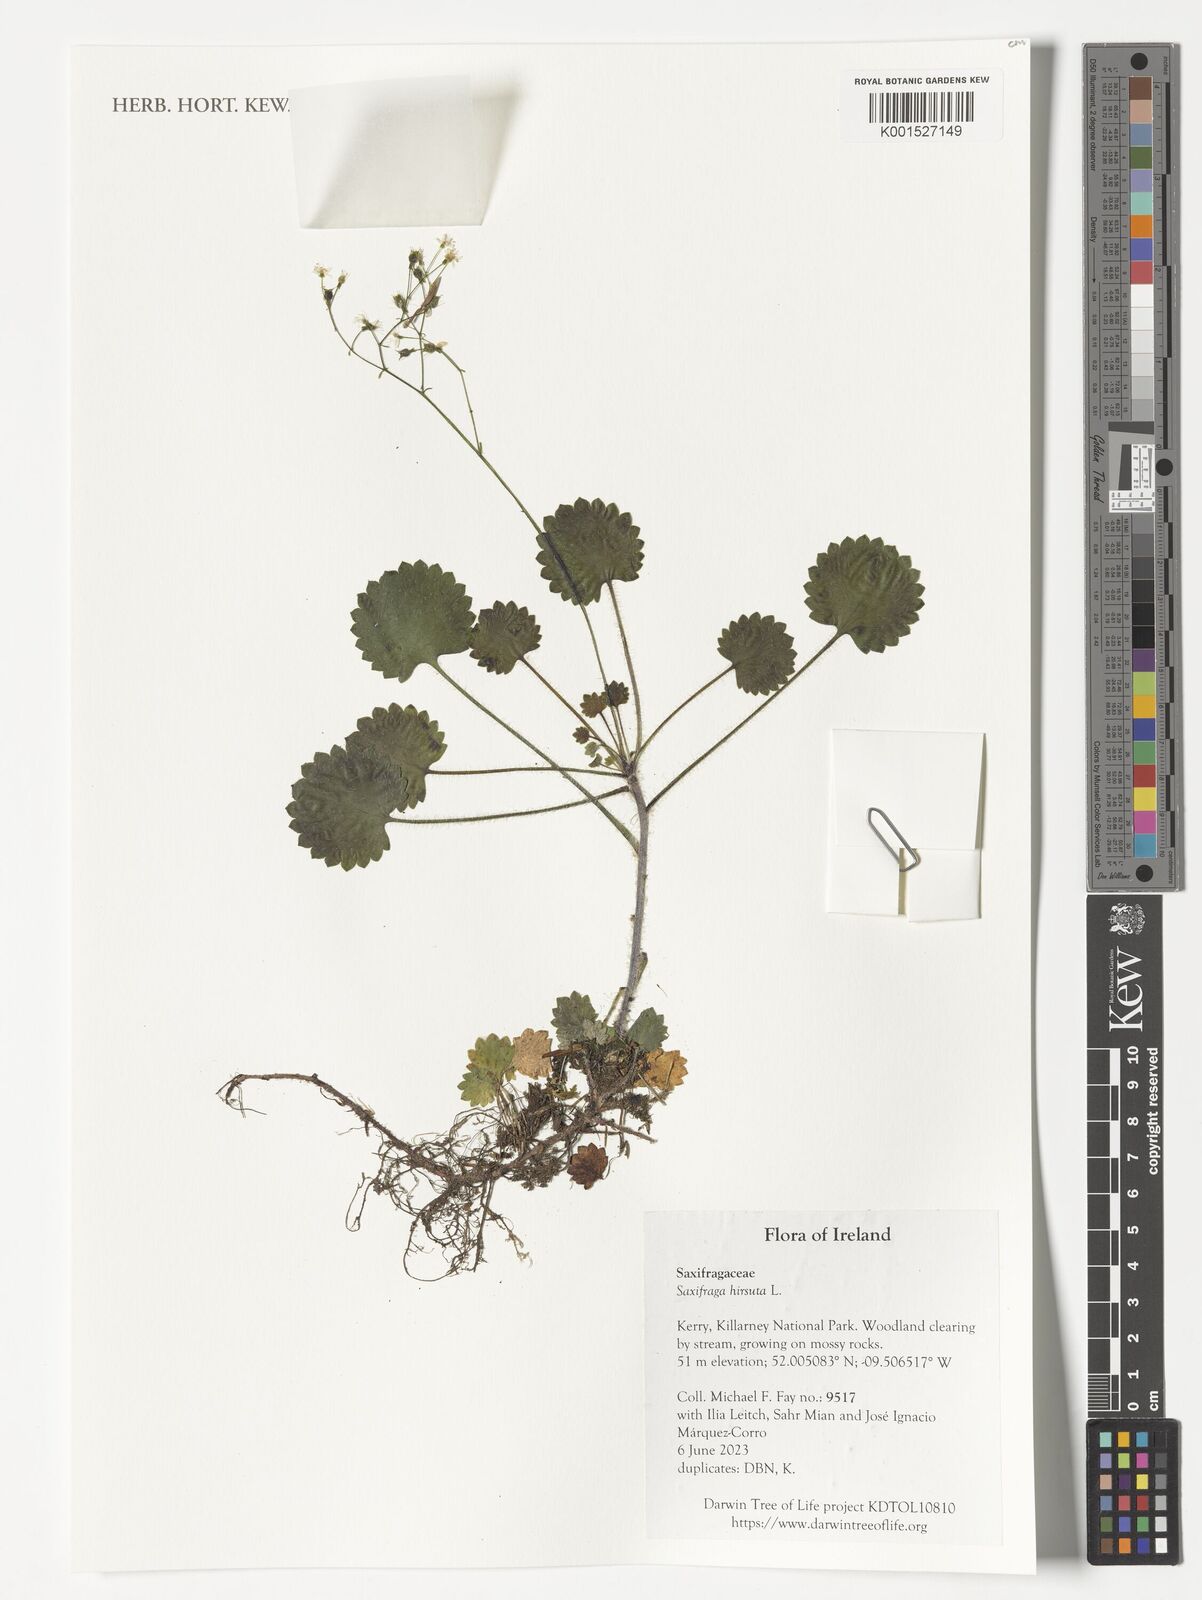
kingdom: Plantae
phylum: Tracheophyta
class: Magnoliopsida
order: Saxifragales
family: Saxifragaceae
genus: Saxifraga
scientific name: Saxifraga hirsuta
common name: Kidney saxifrage
